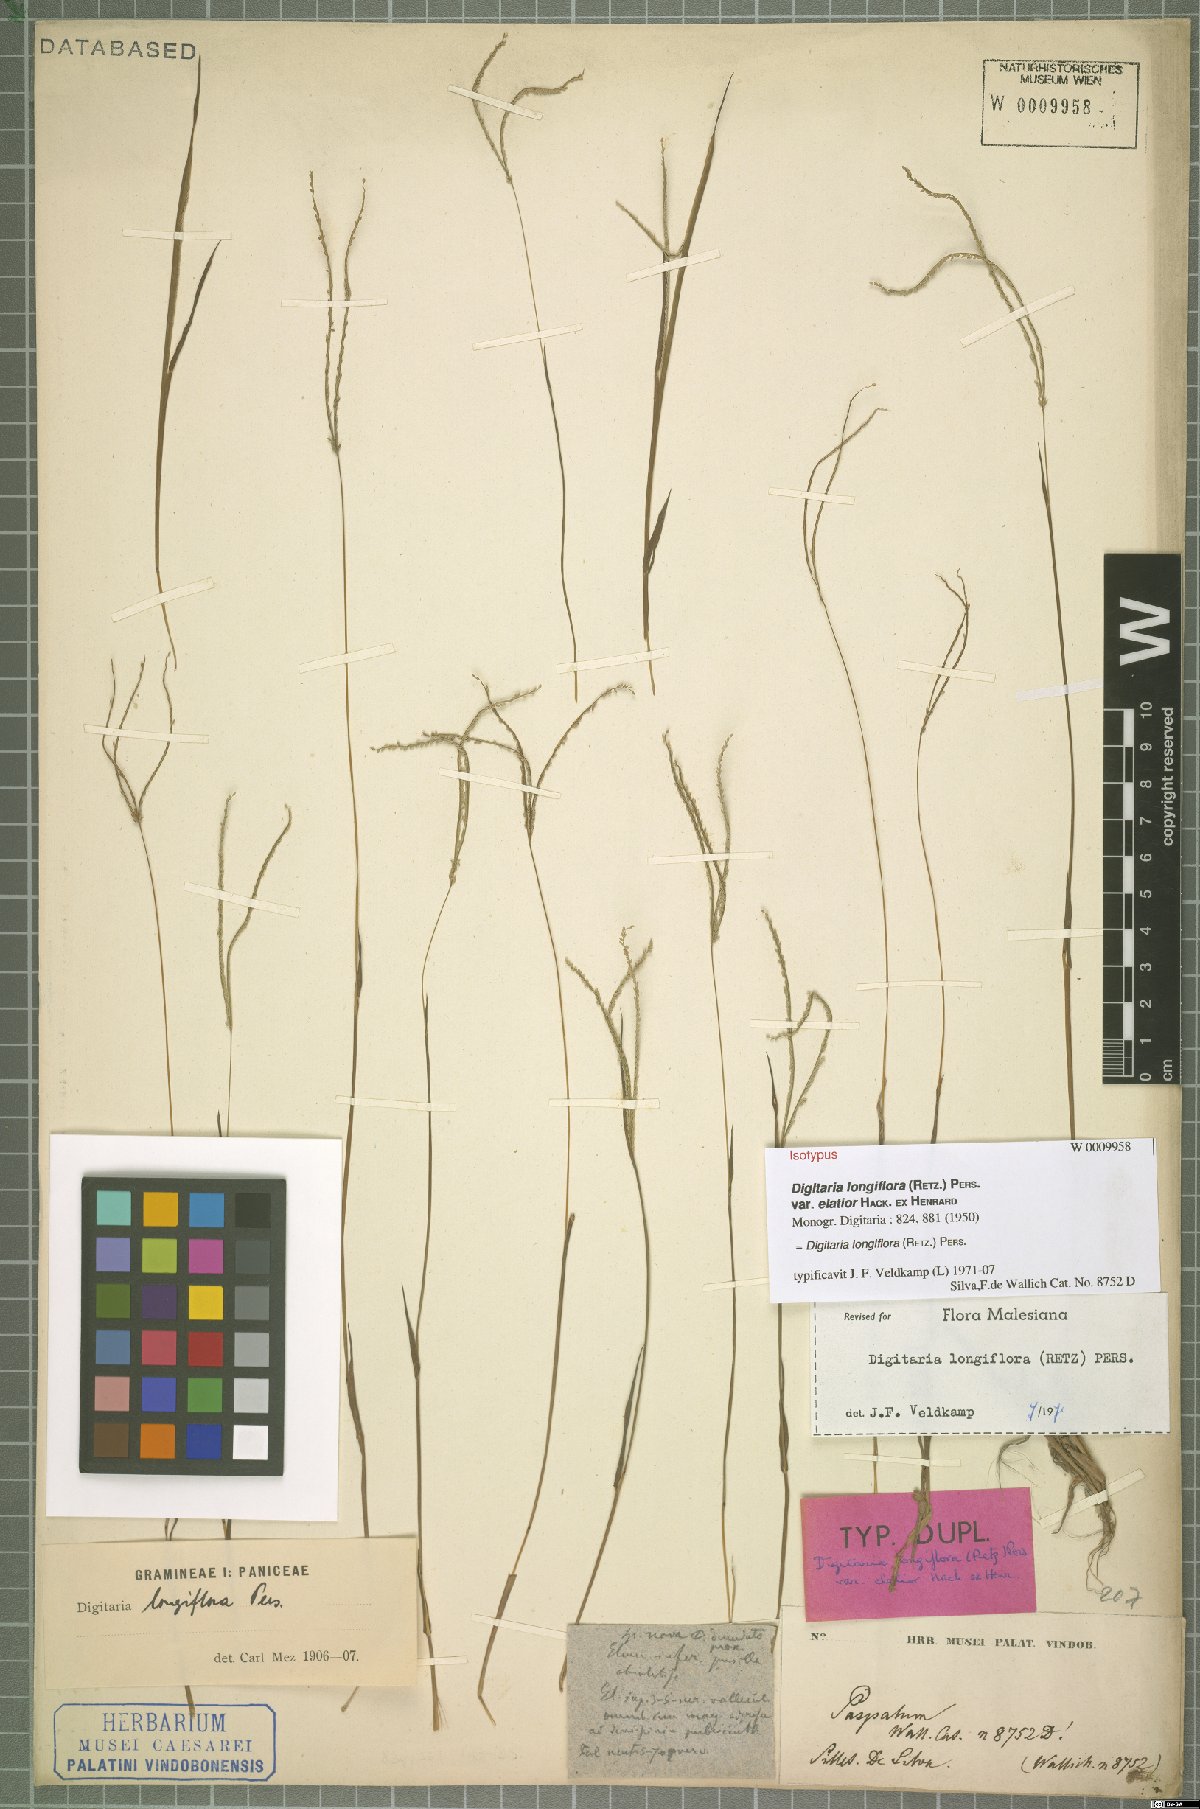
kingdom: Plantae
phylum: Tracheophyta
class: Liliopsida
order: Poales
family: Poaceae
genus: Digitaria
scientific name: Digitaria longiflora
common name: Wire crabgrass
